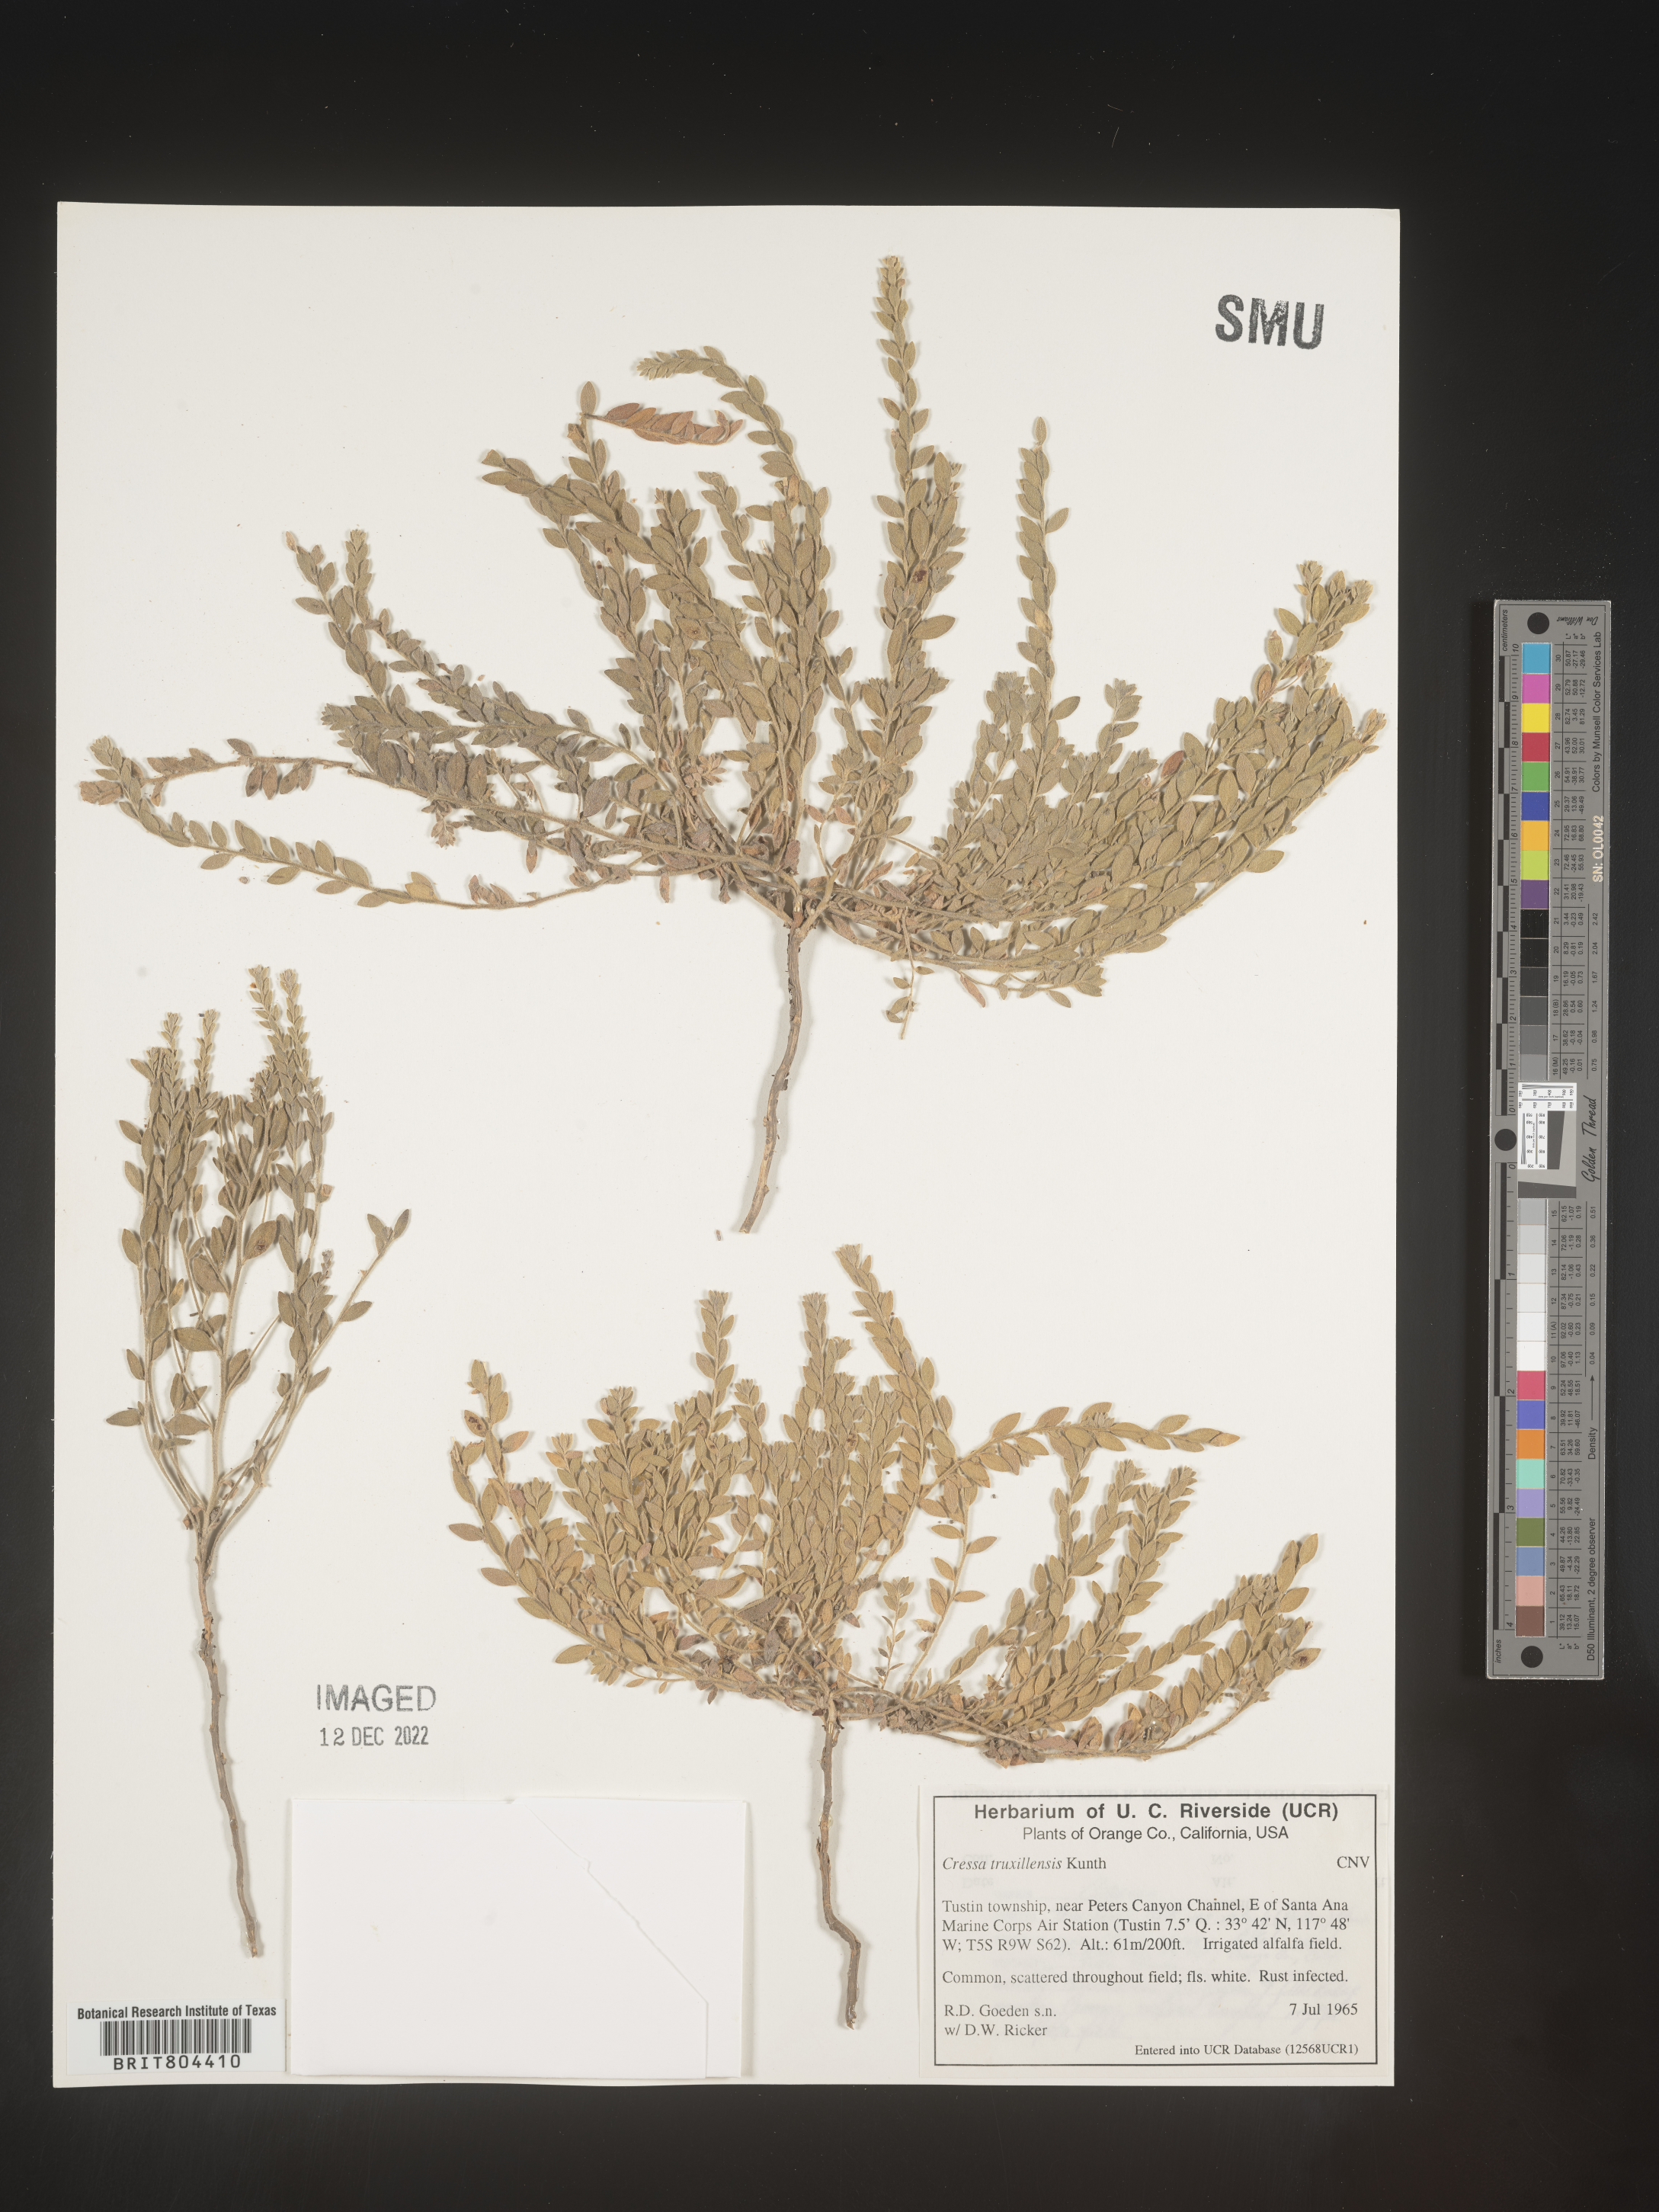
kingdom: Plantae
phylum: Tracheophyta
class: Magnoliopsida
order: Solanales
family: Convolvulaceae
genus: Cressa
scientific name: Cressa
